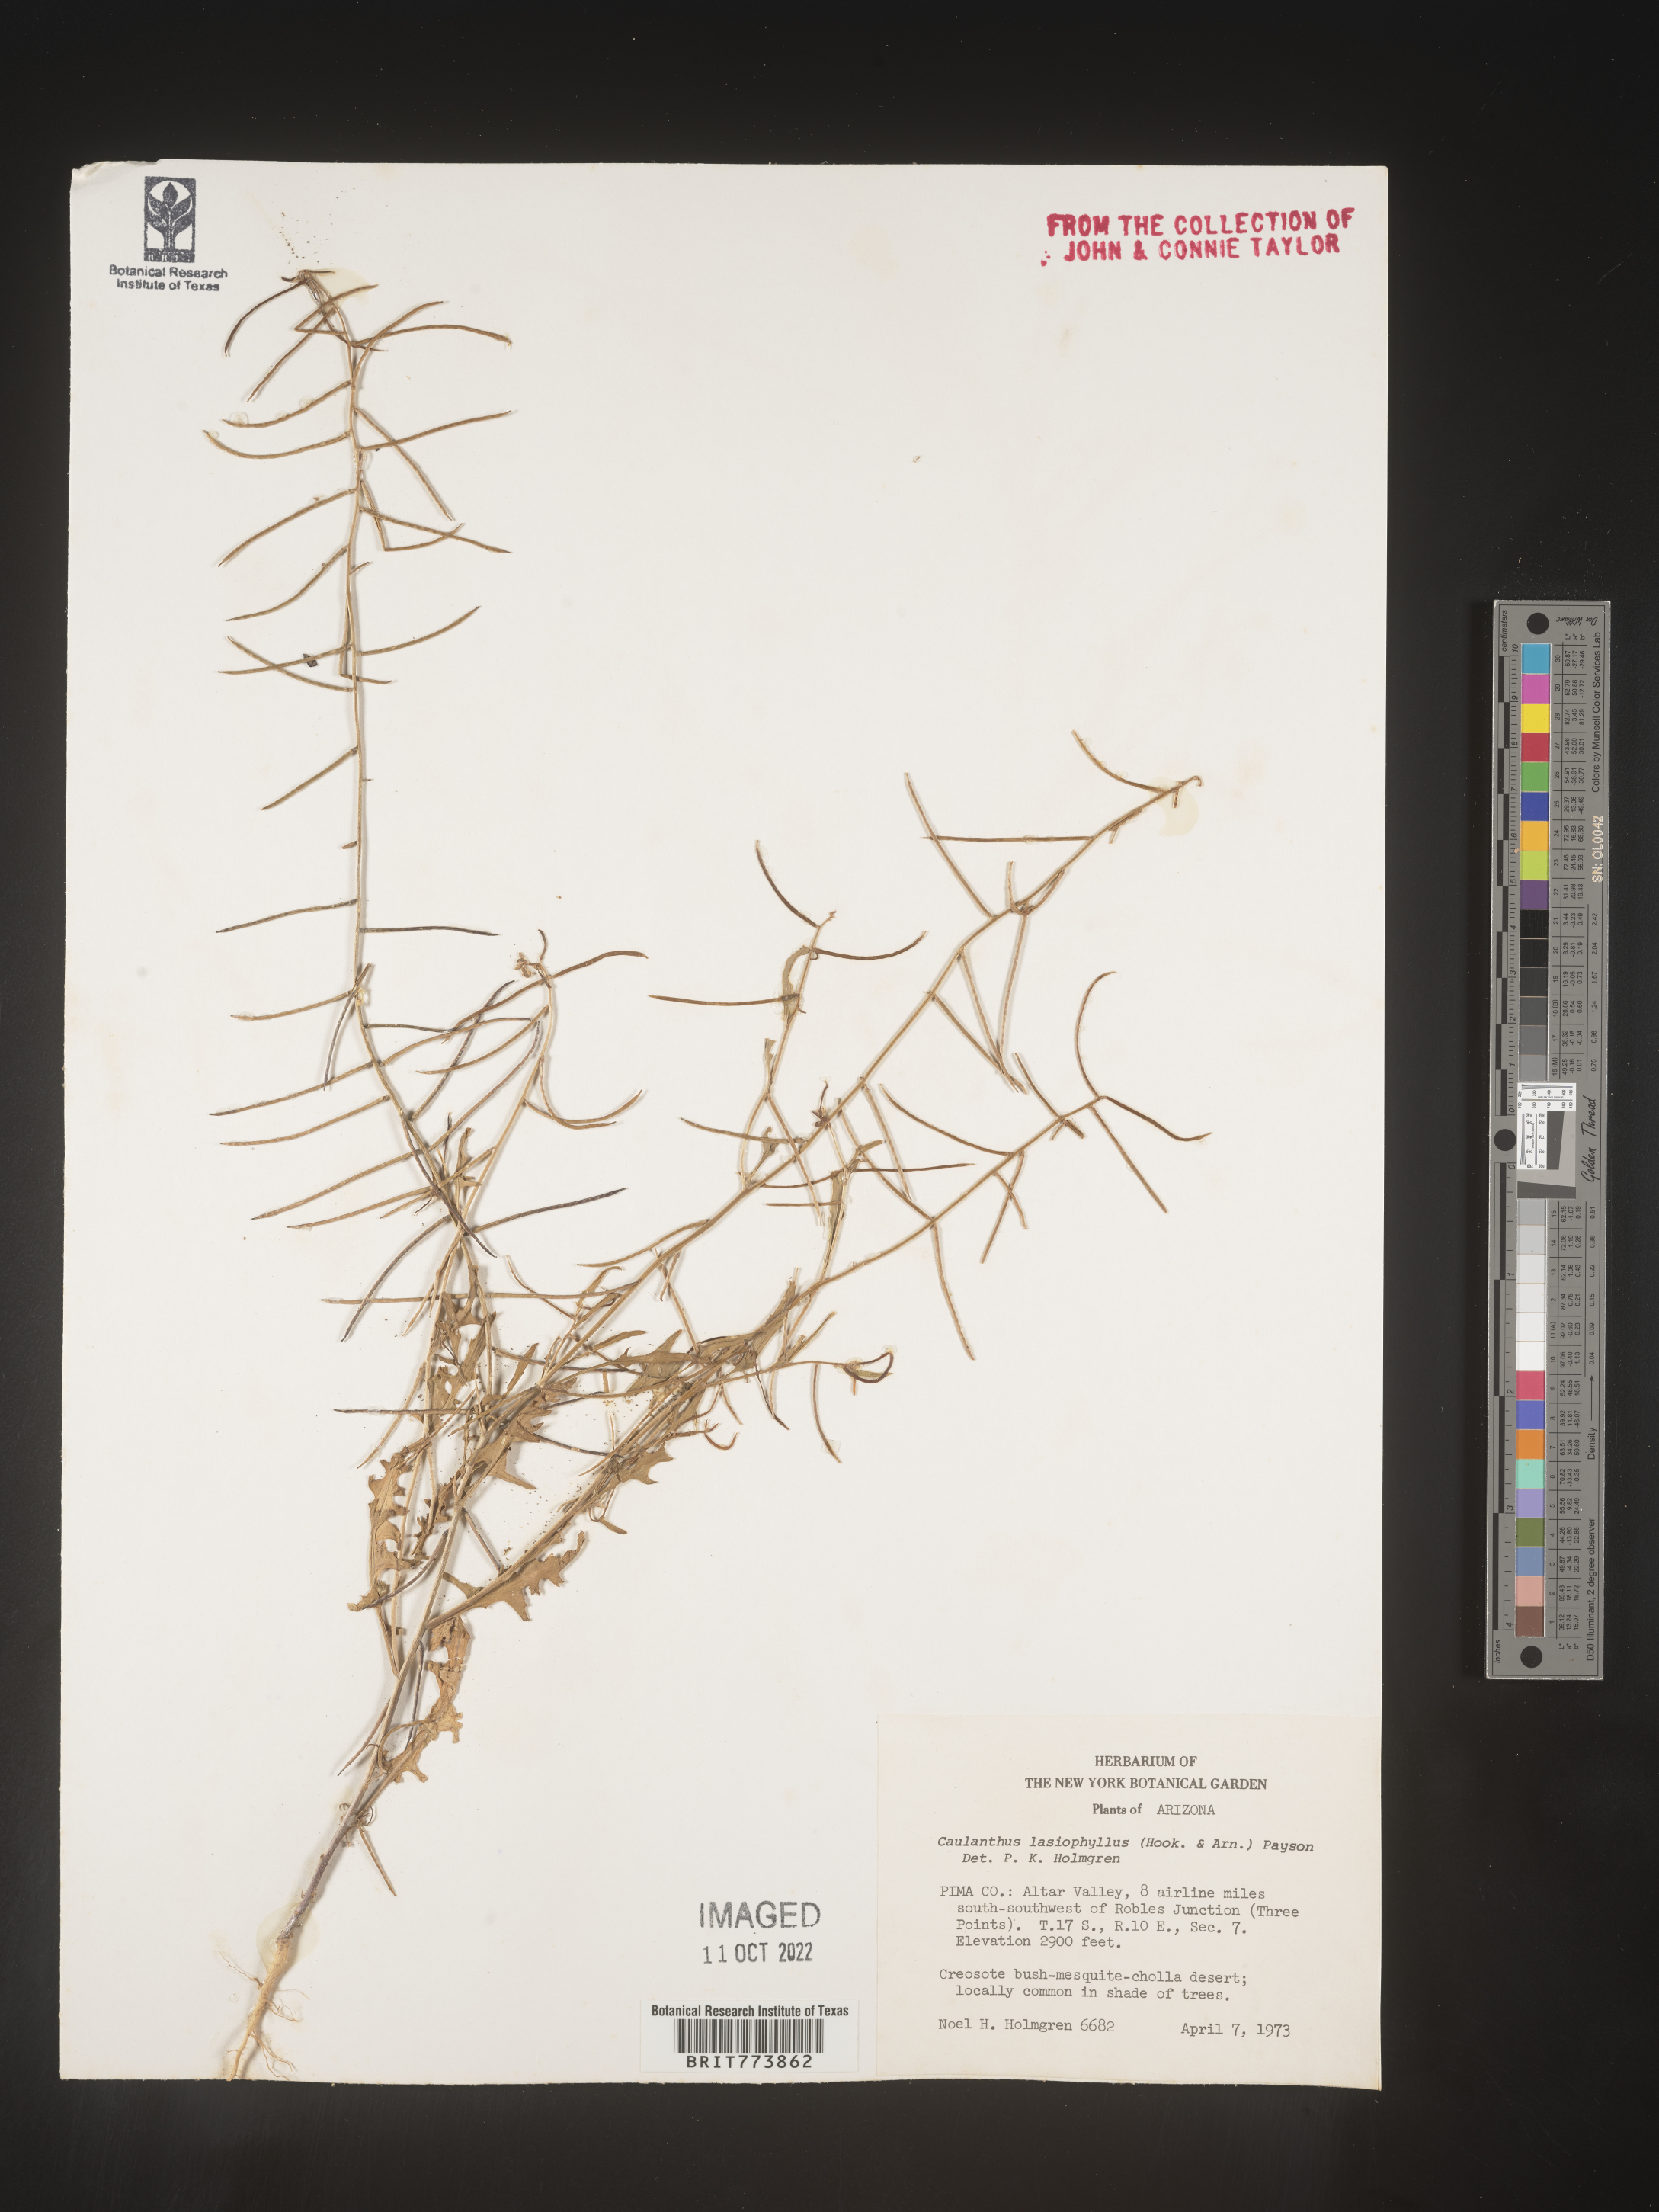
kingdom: Plantae
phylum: Tracheophyta
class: Magnoliopsida
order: Brassicales
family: Brassicaceae
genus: Streptanthus
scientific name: Streptanthus
